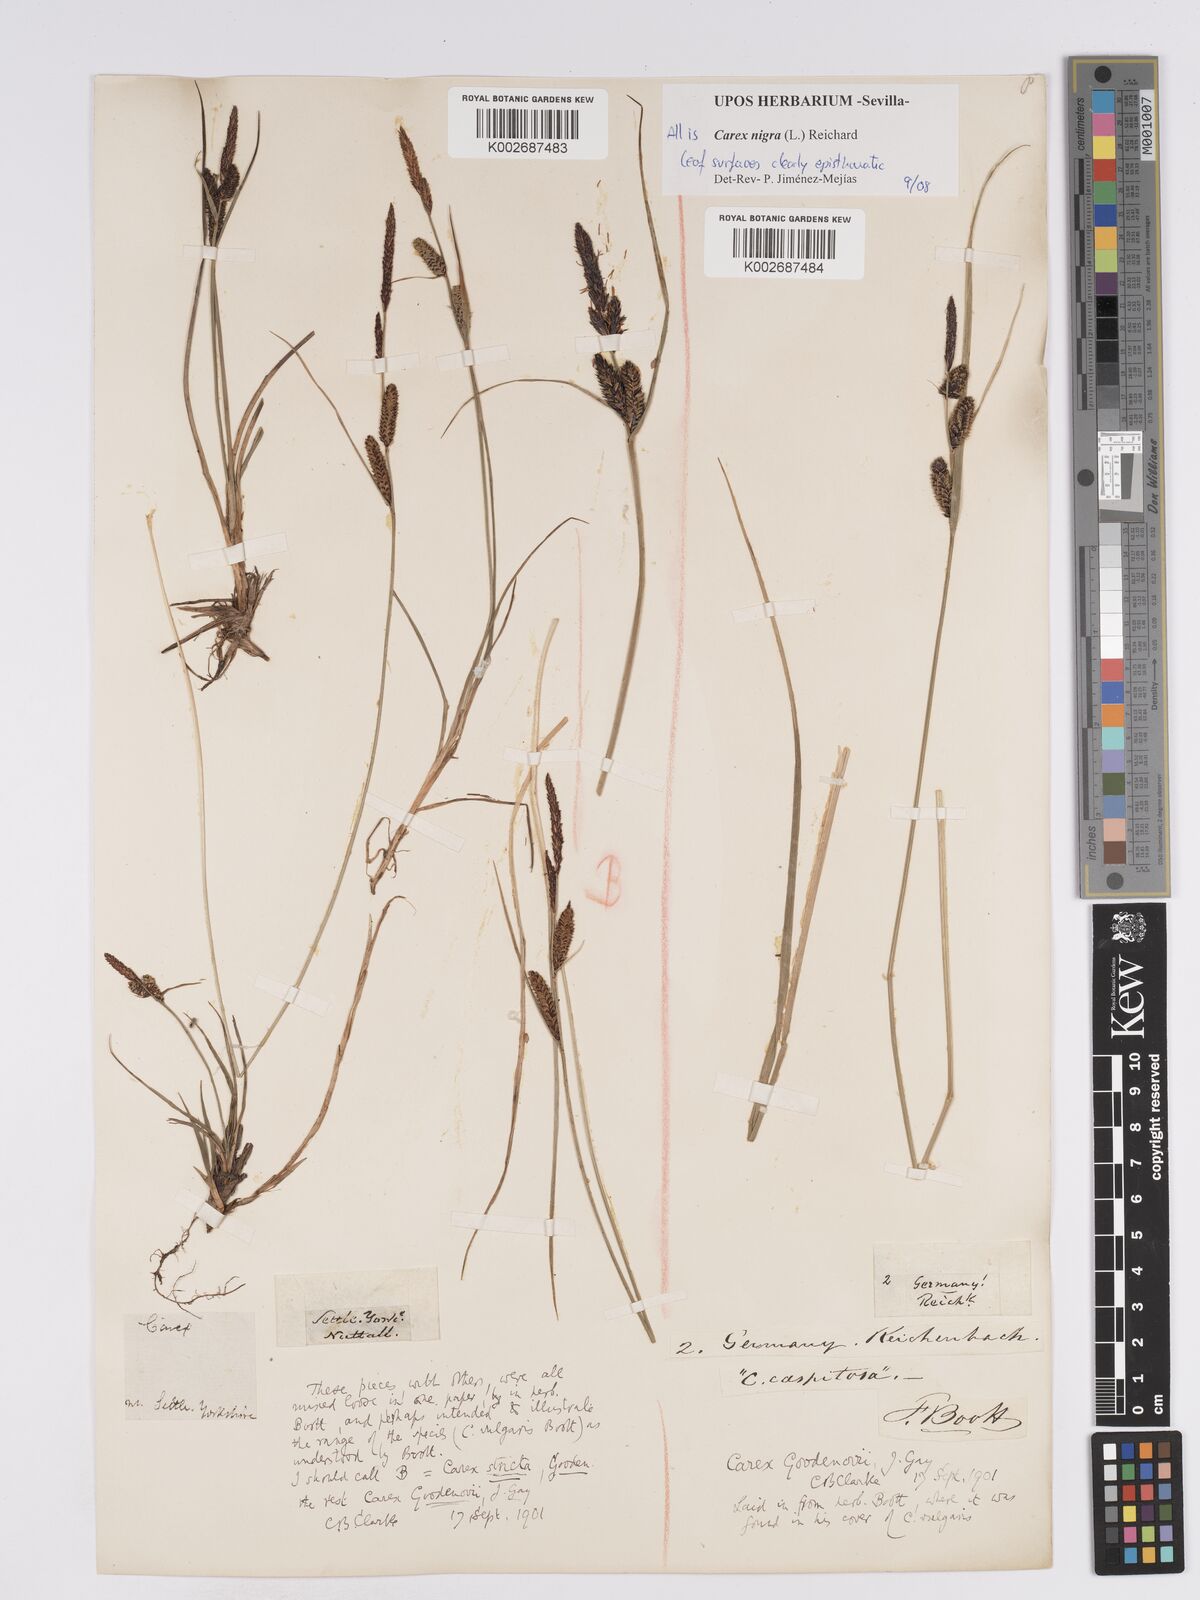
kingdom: Plantae
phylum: Tracheophyta
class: Liliopsida
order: Poales
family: Cyperaceae
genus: Carex
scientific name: Carex nigra
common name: Common sedge
